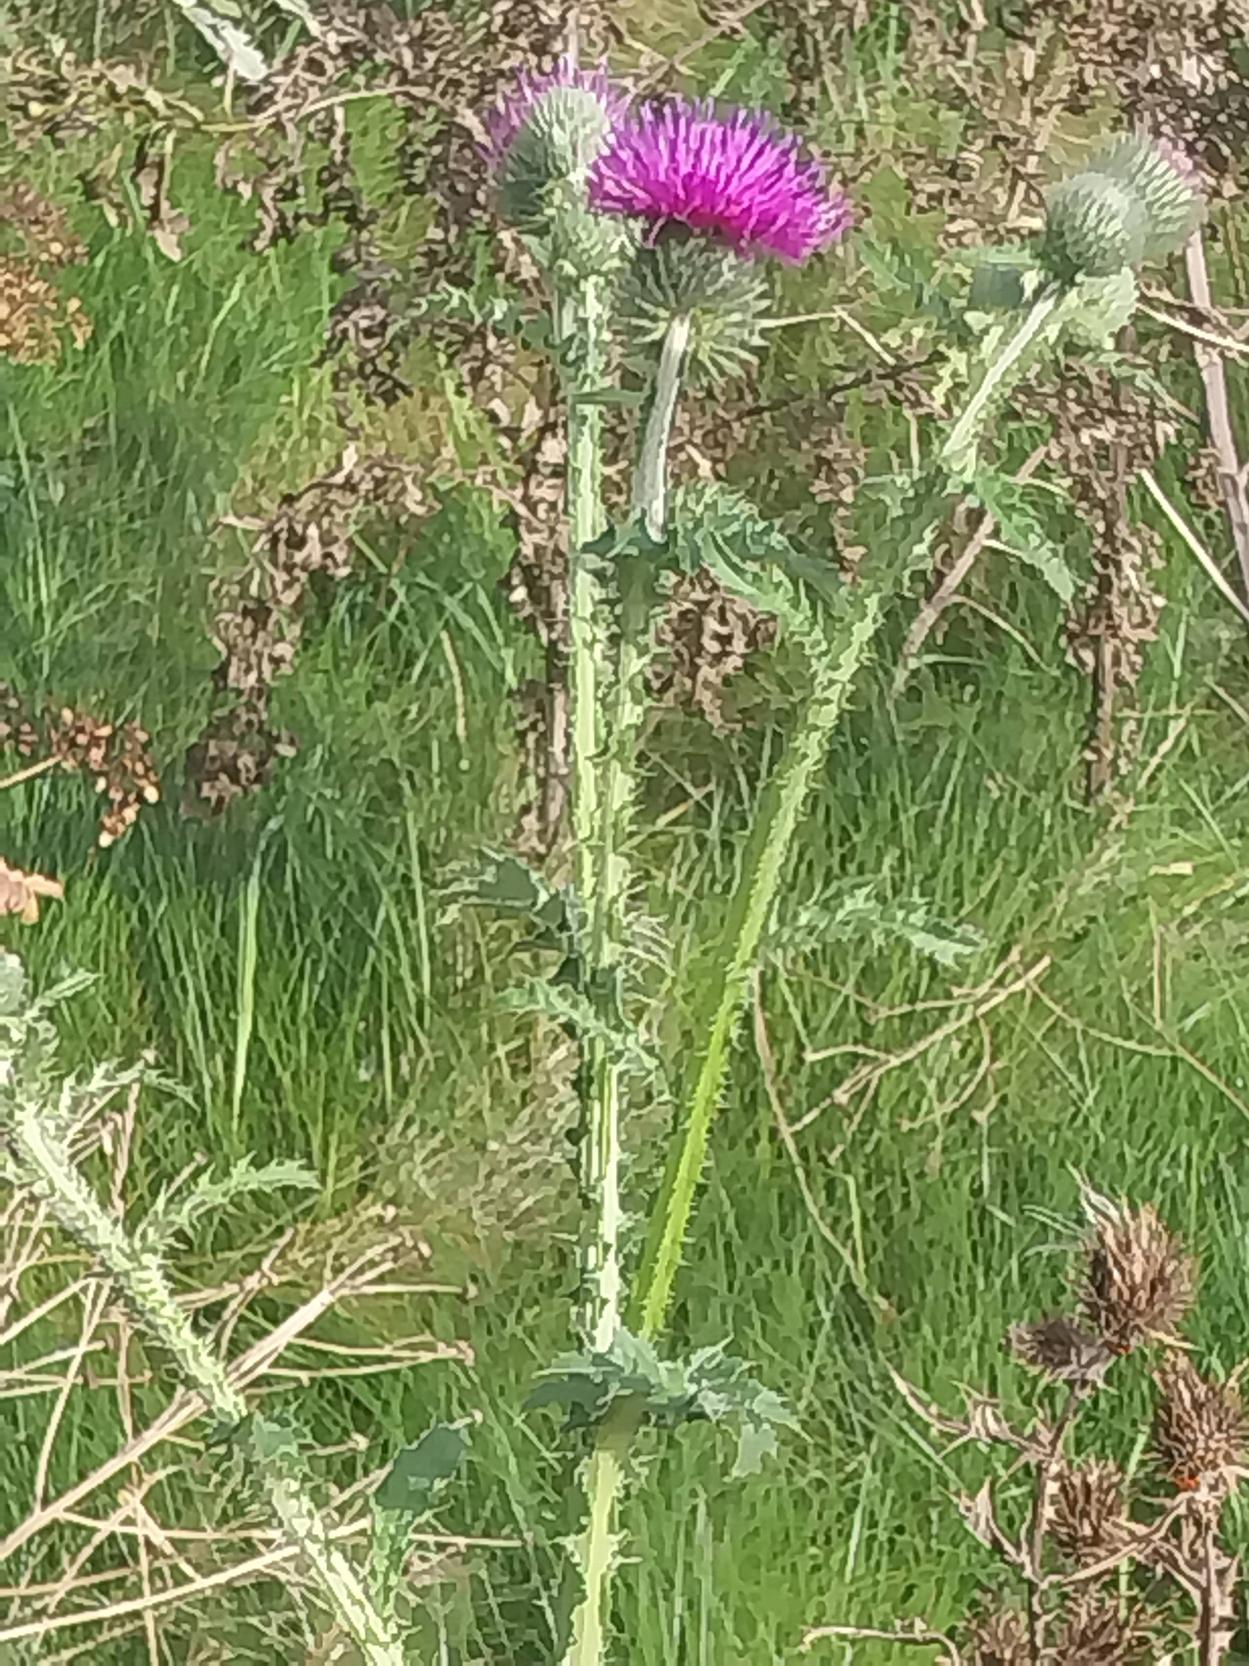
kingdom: Plantae
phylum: Tracheophyta
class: Magnoliopsida
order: Asterales
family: Asteraceae
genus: Carduus
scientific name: Carduus crispus
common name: Kruset tidsel
